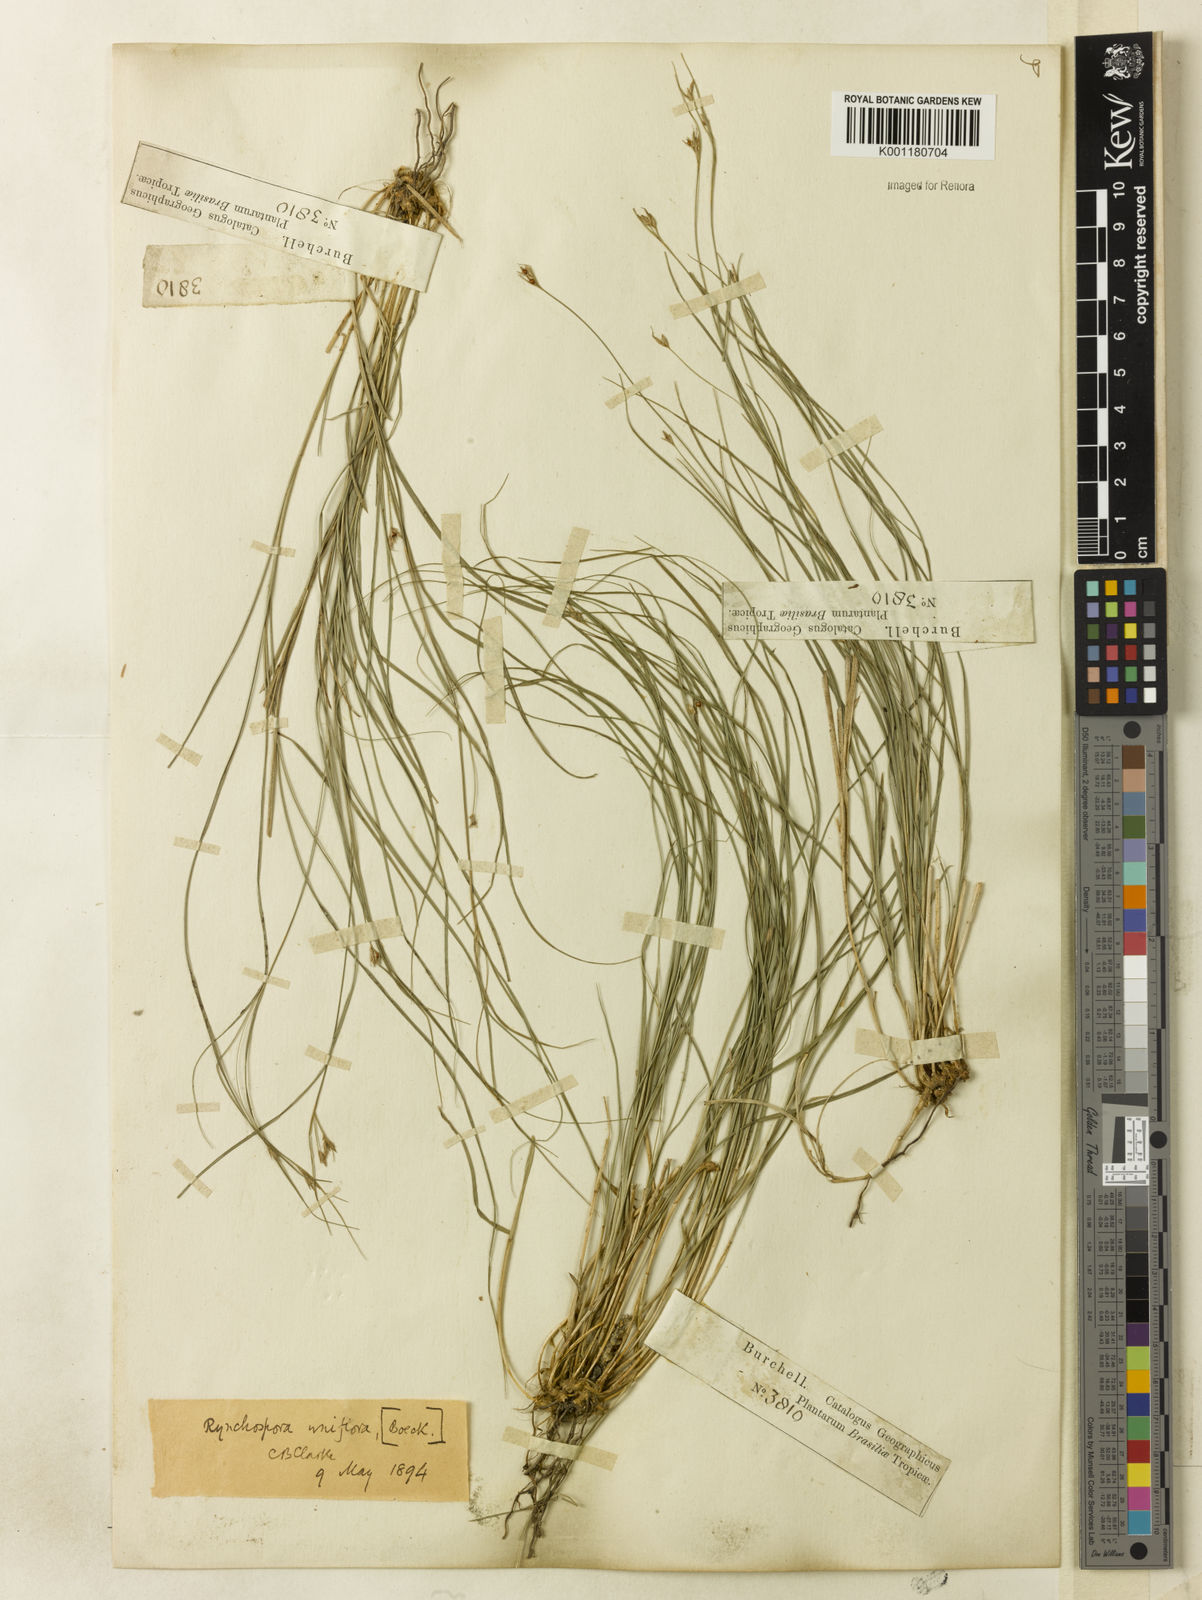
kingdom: Plantae
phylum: Tracheophyta
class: Liliopsida
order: Poales
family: Cyperaceae
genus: Rhynchospora
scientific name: Rhynchospora biflora
